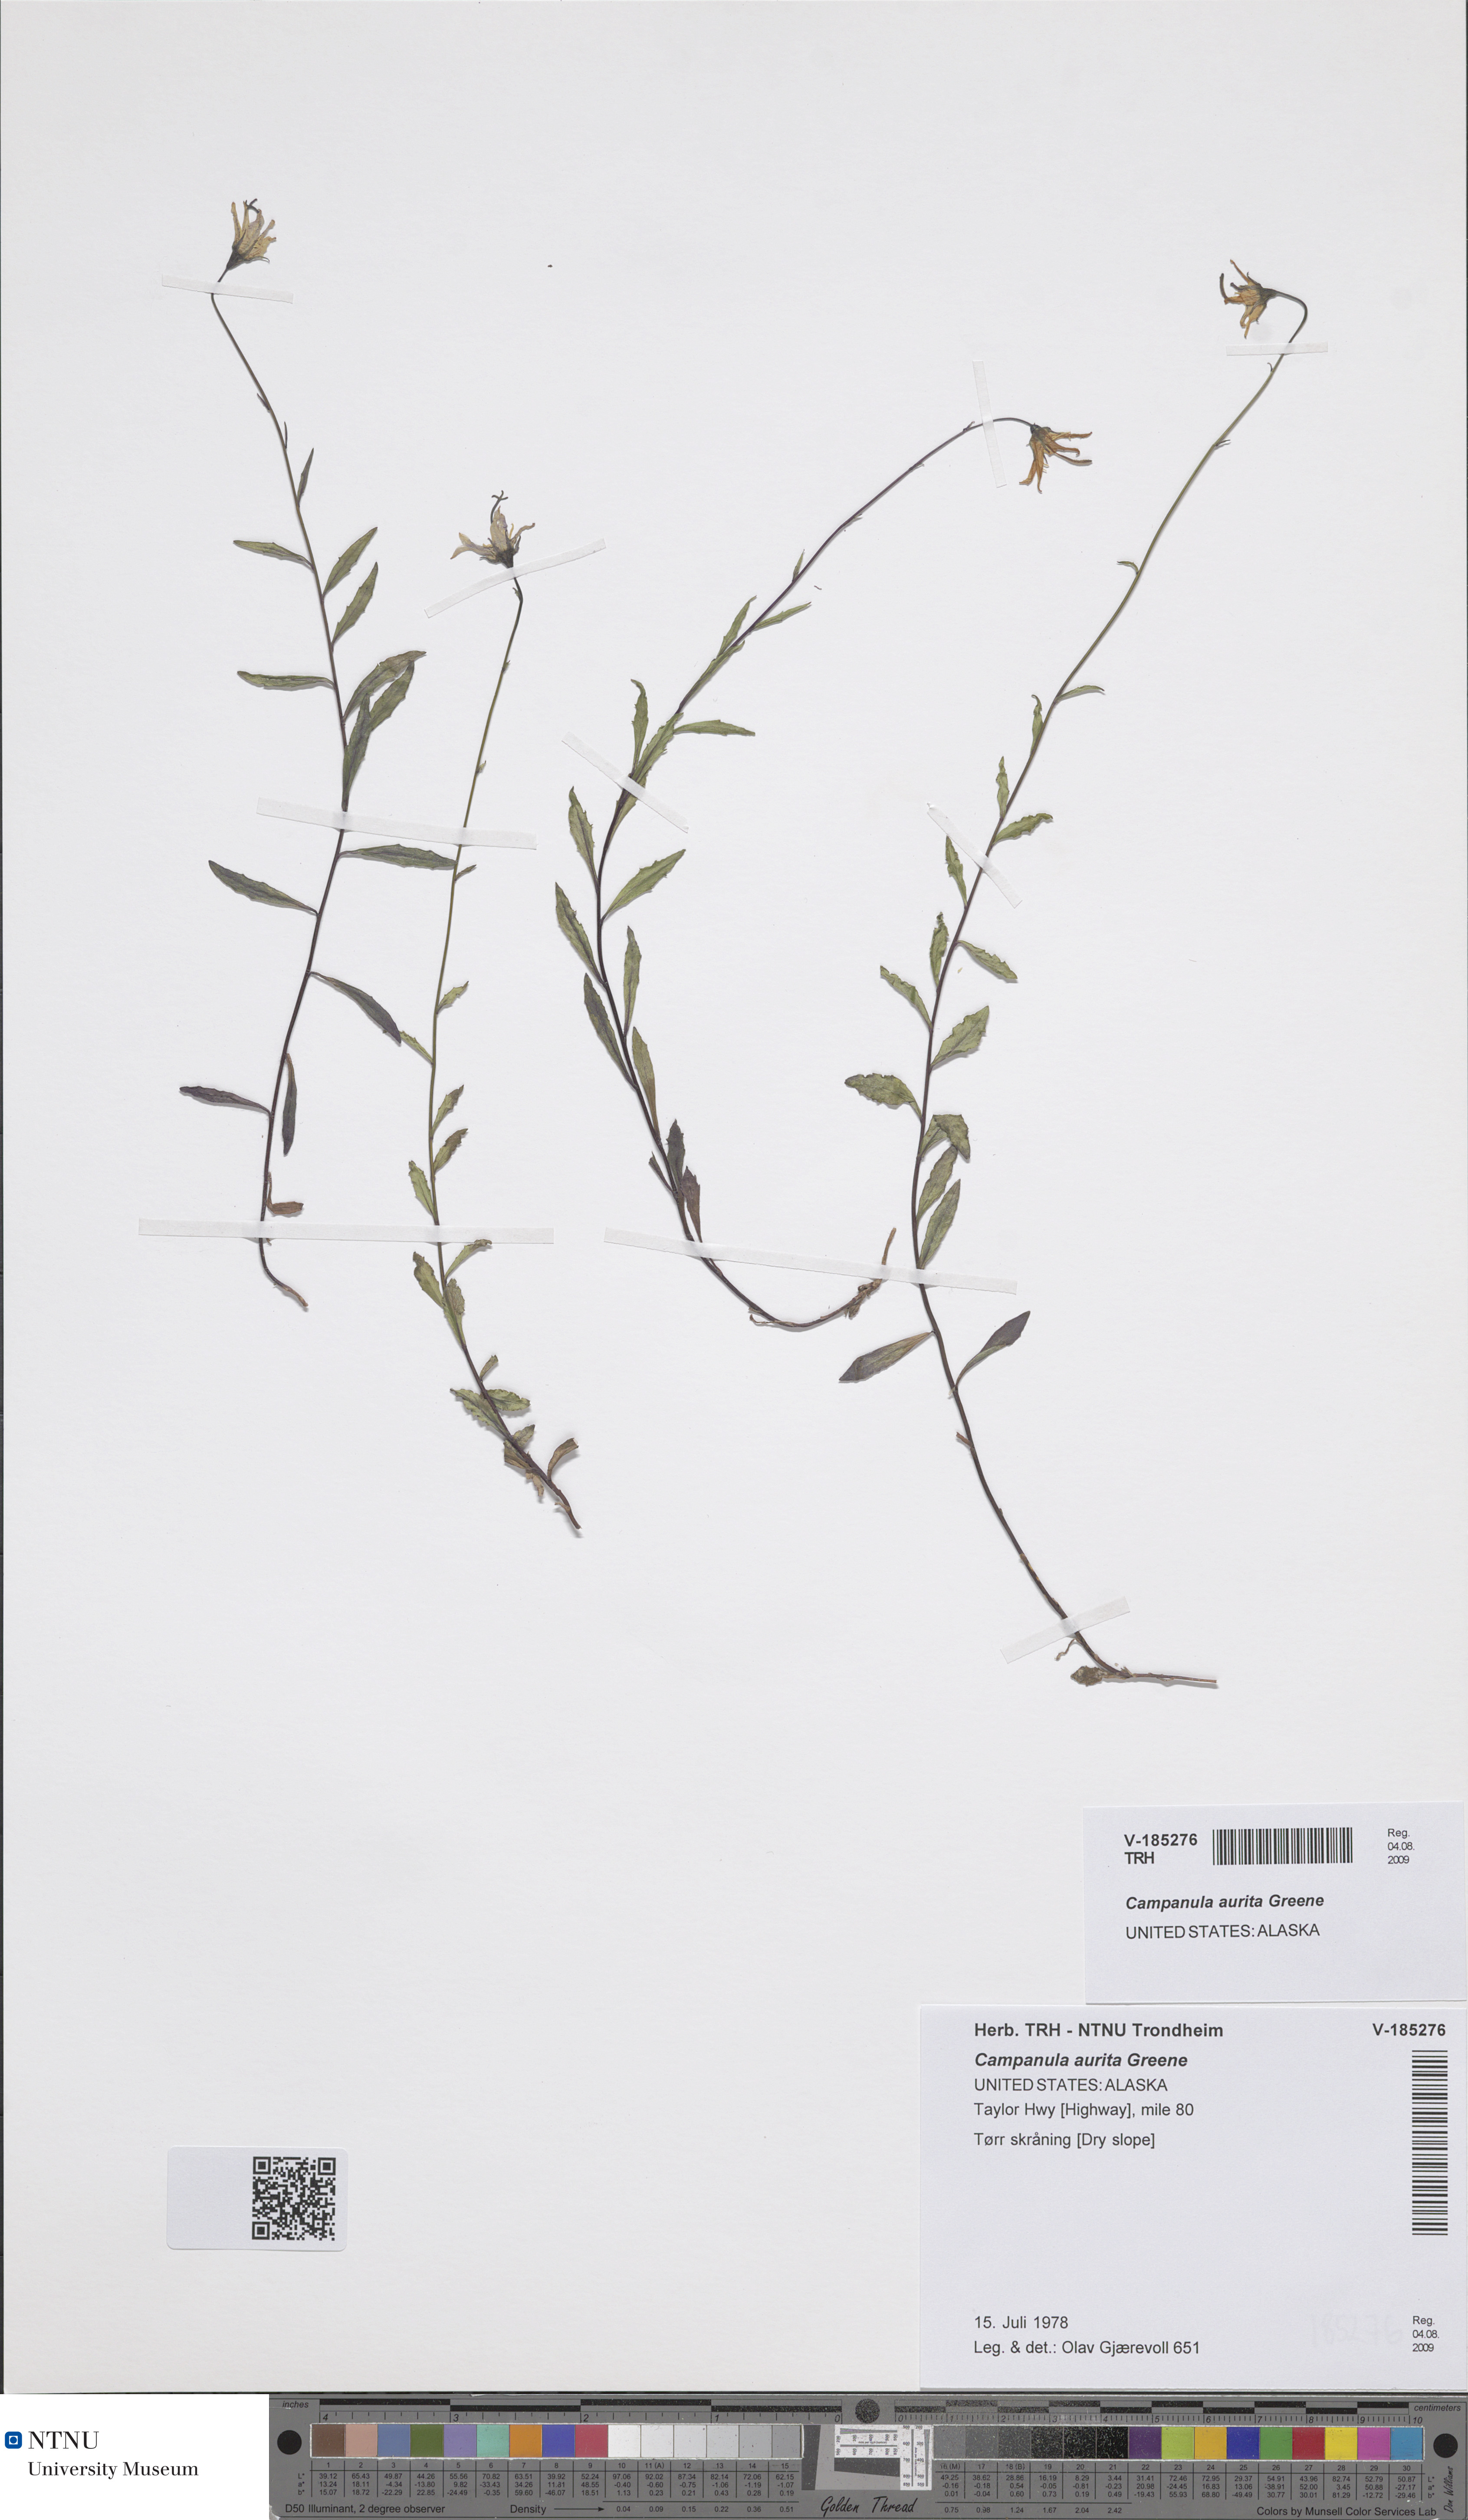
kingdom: Plantae
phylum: Tracheophyta
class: Magnoliopsida
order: Asterales
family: Campanulaceae
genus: Campanula
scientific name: Campanula aurita
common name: Yukon bellflower
